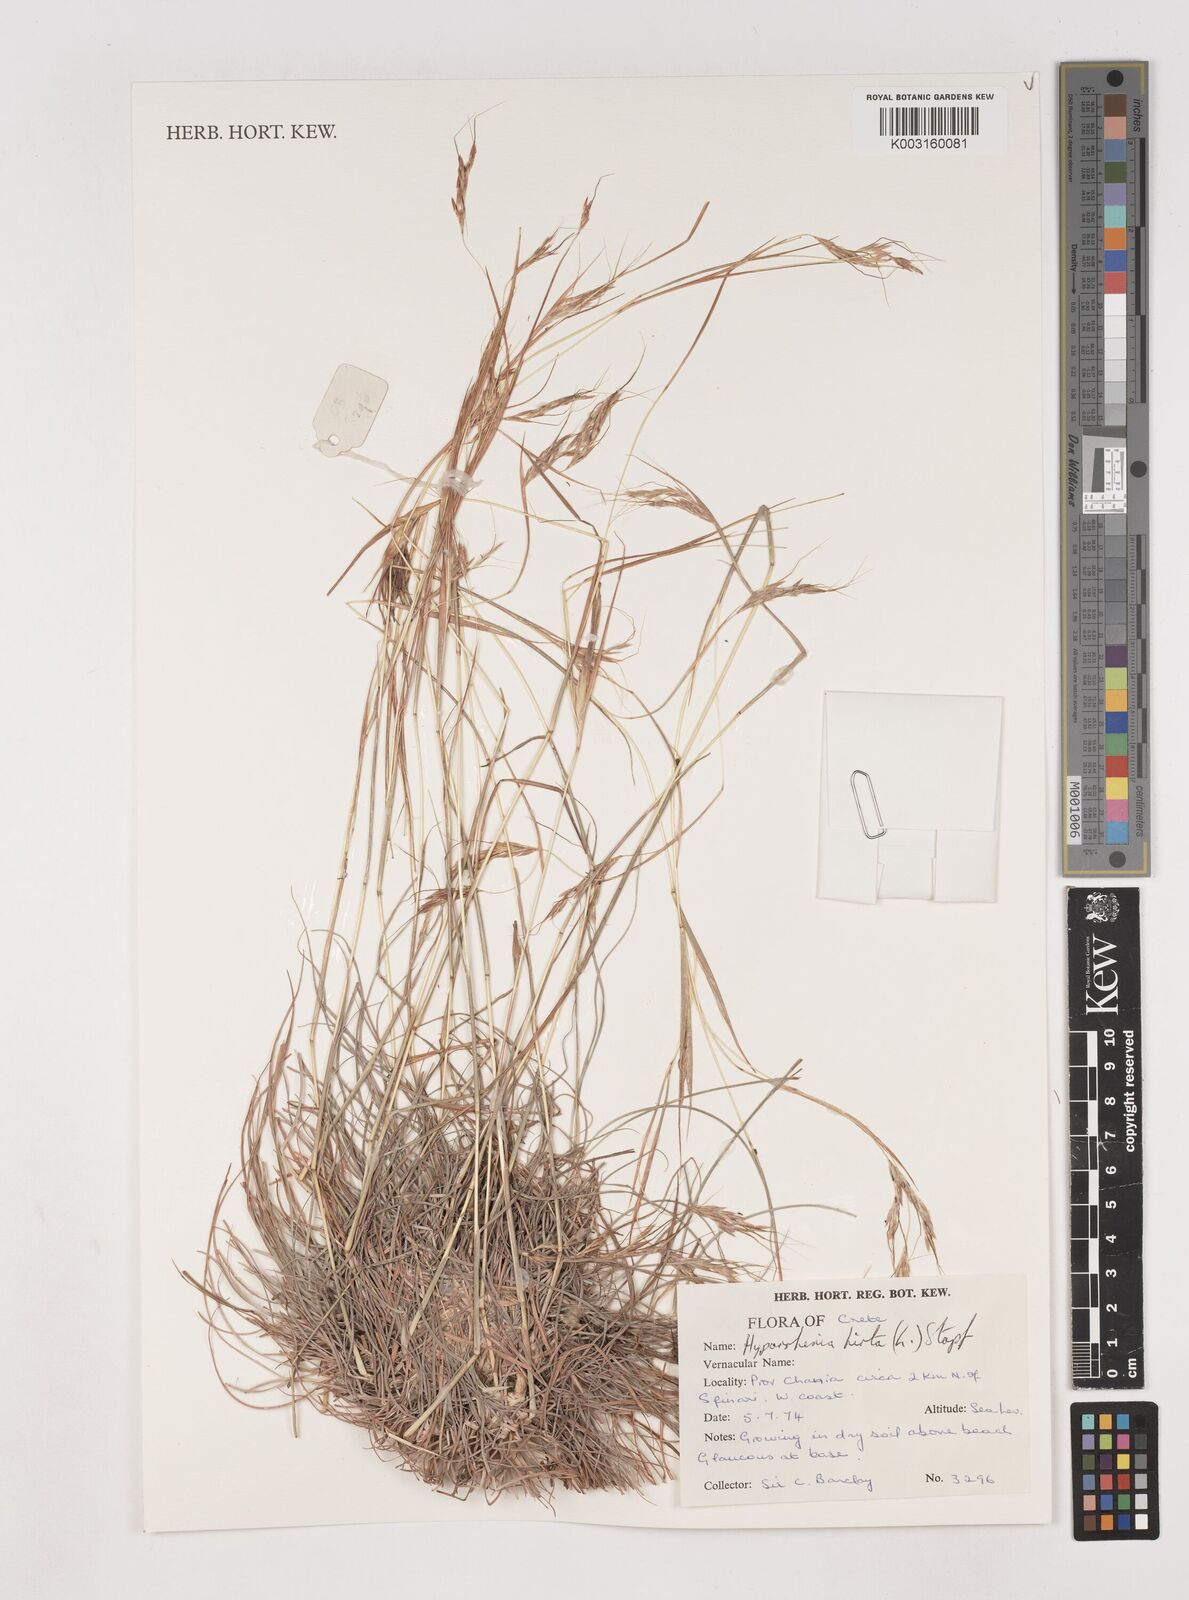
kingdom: Plantae
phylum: Tracheophyta
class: Liliopsida
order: Poales
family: Poaceae
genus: Hyparrhenia
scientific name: Hyparrhenia hirta
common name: Thatching grass
